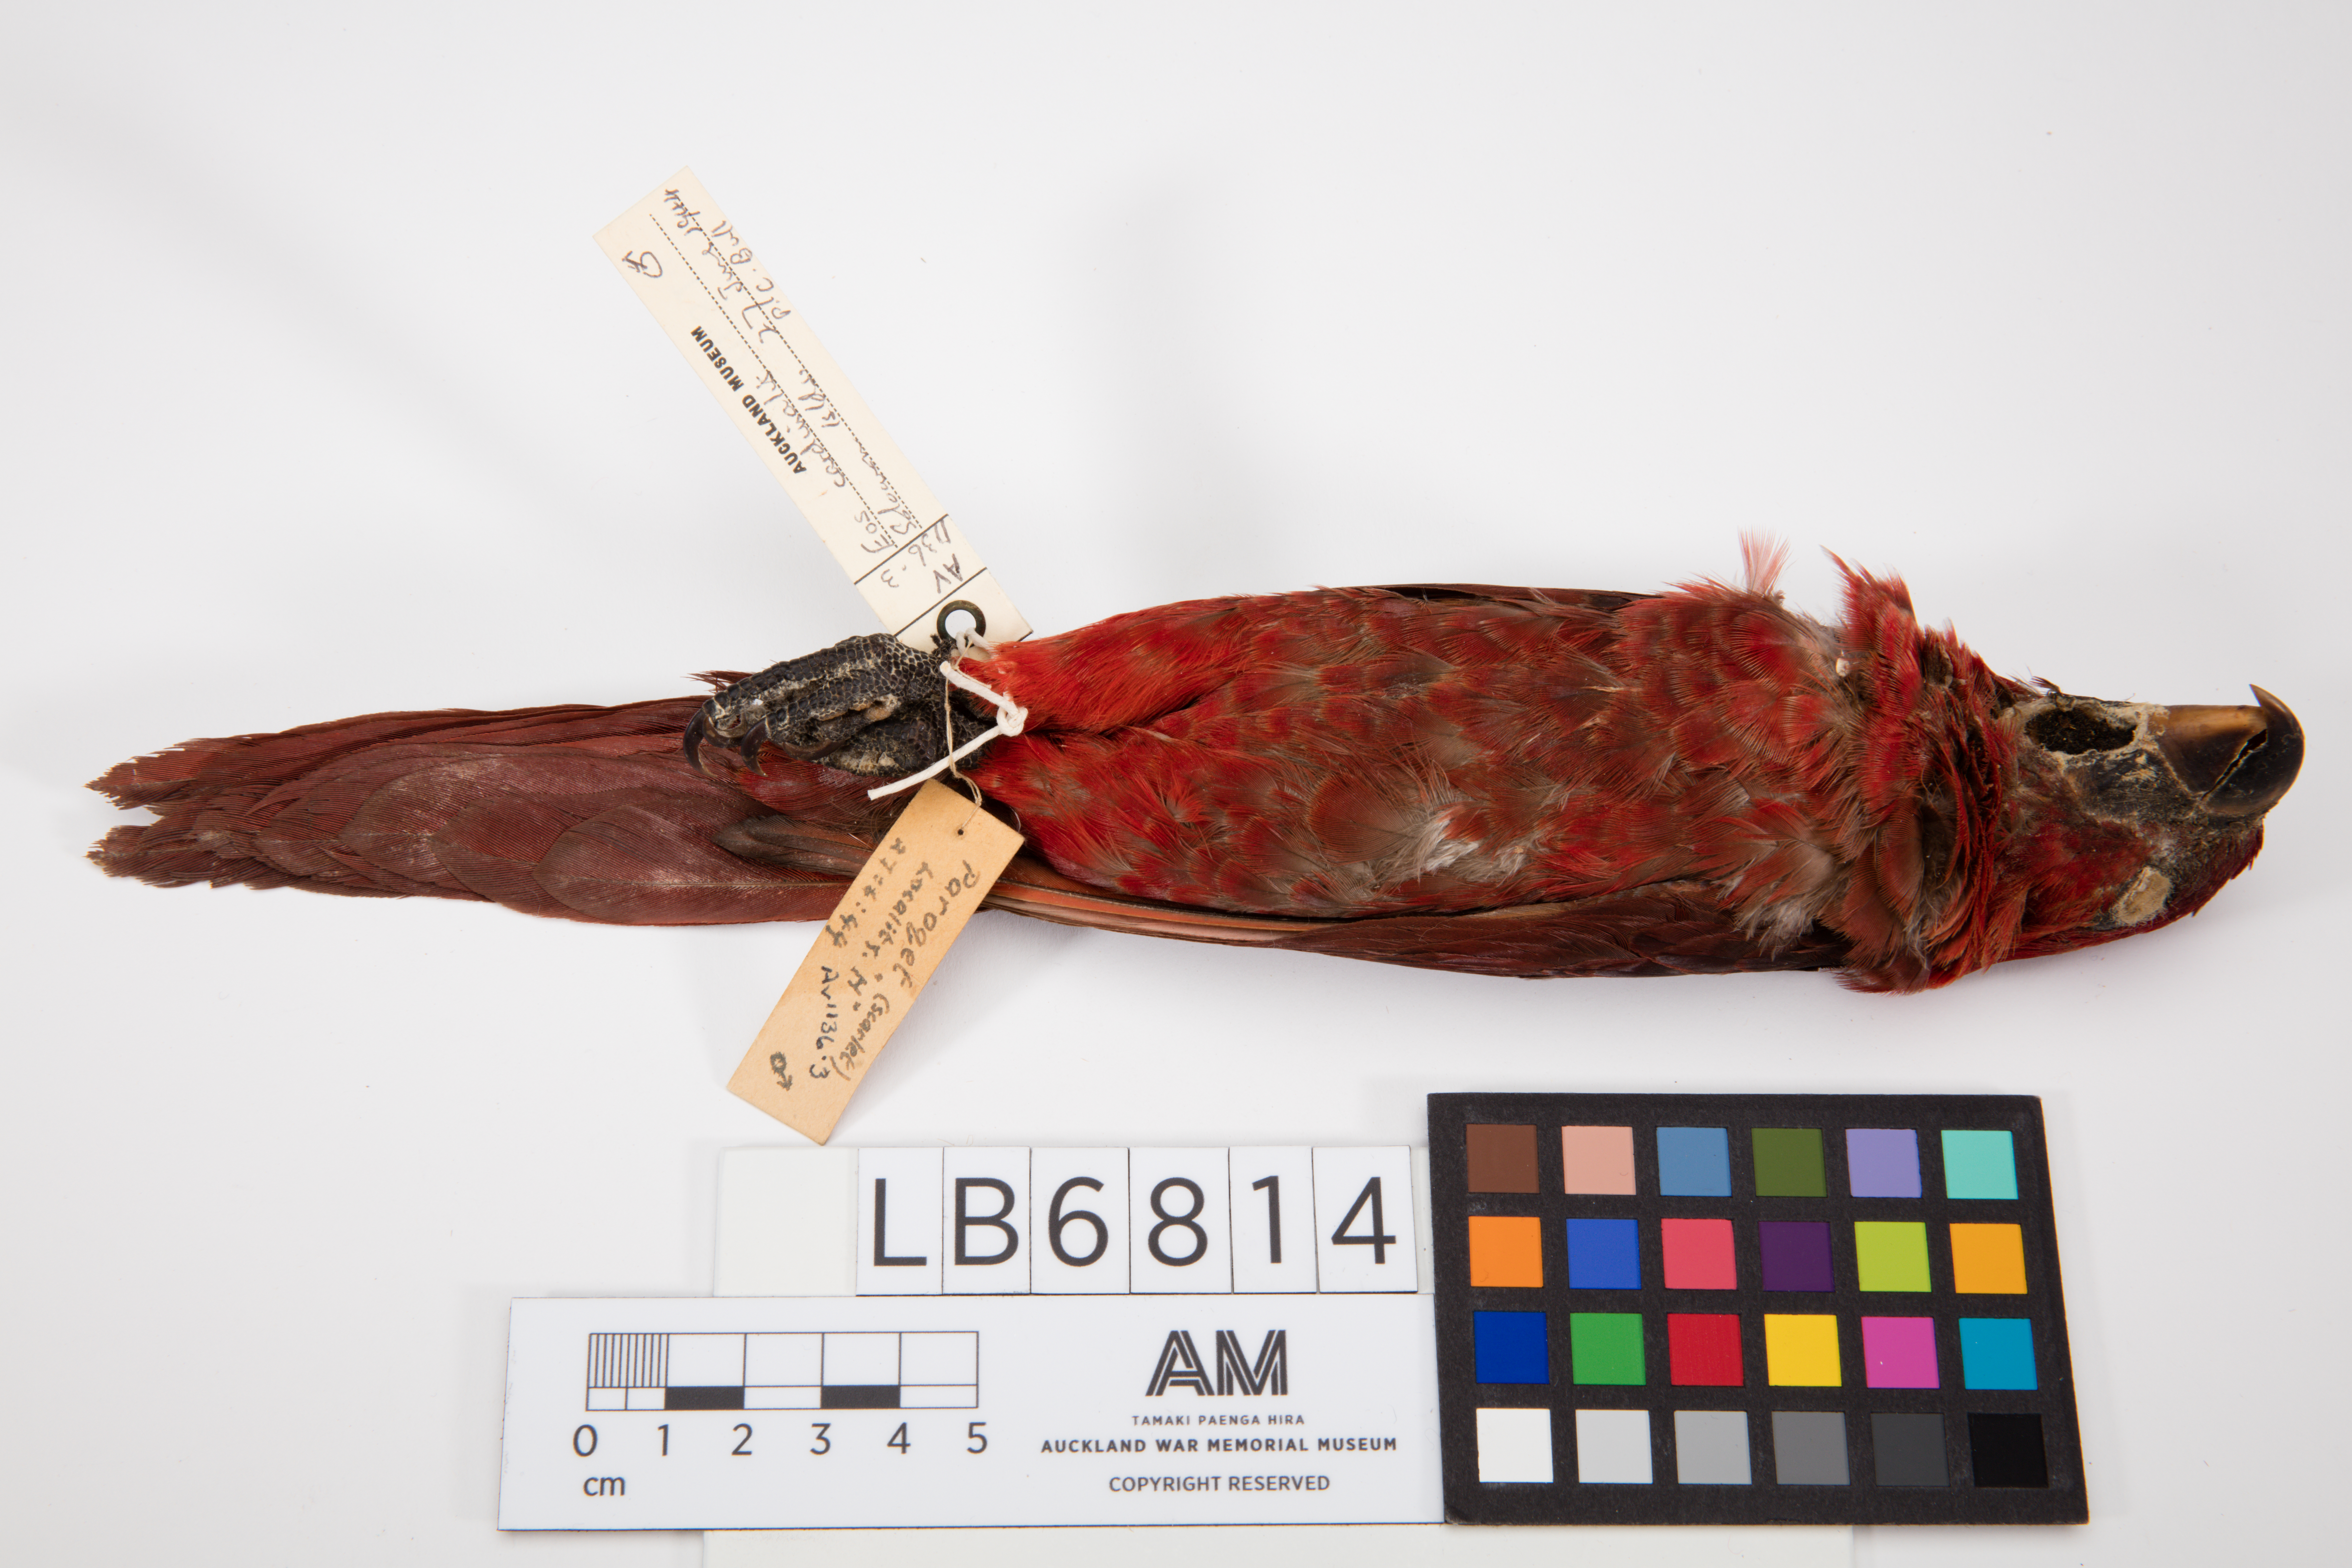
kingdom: Animalia
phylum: Chordata
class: Aves
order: Psittaciformes
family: Psittacidae
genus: Chalcopsitta
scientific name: Chalcopsitta cardinalis
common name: Cardinal lory
